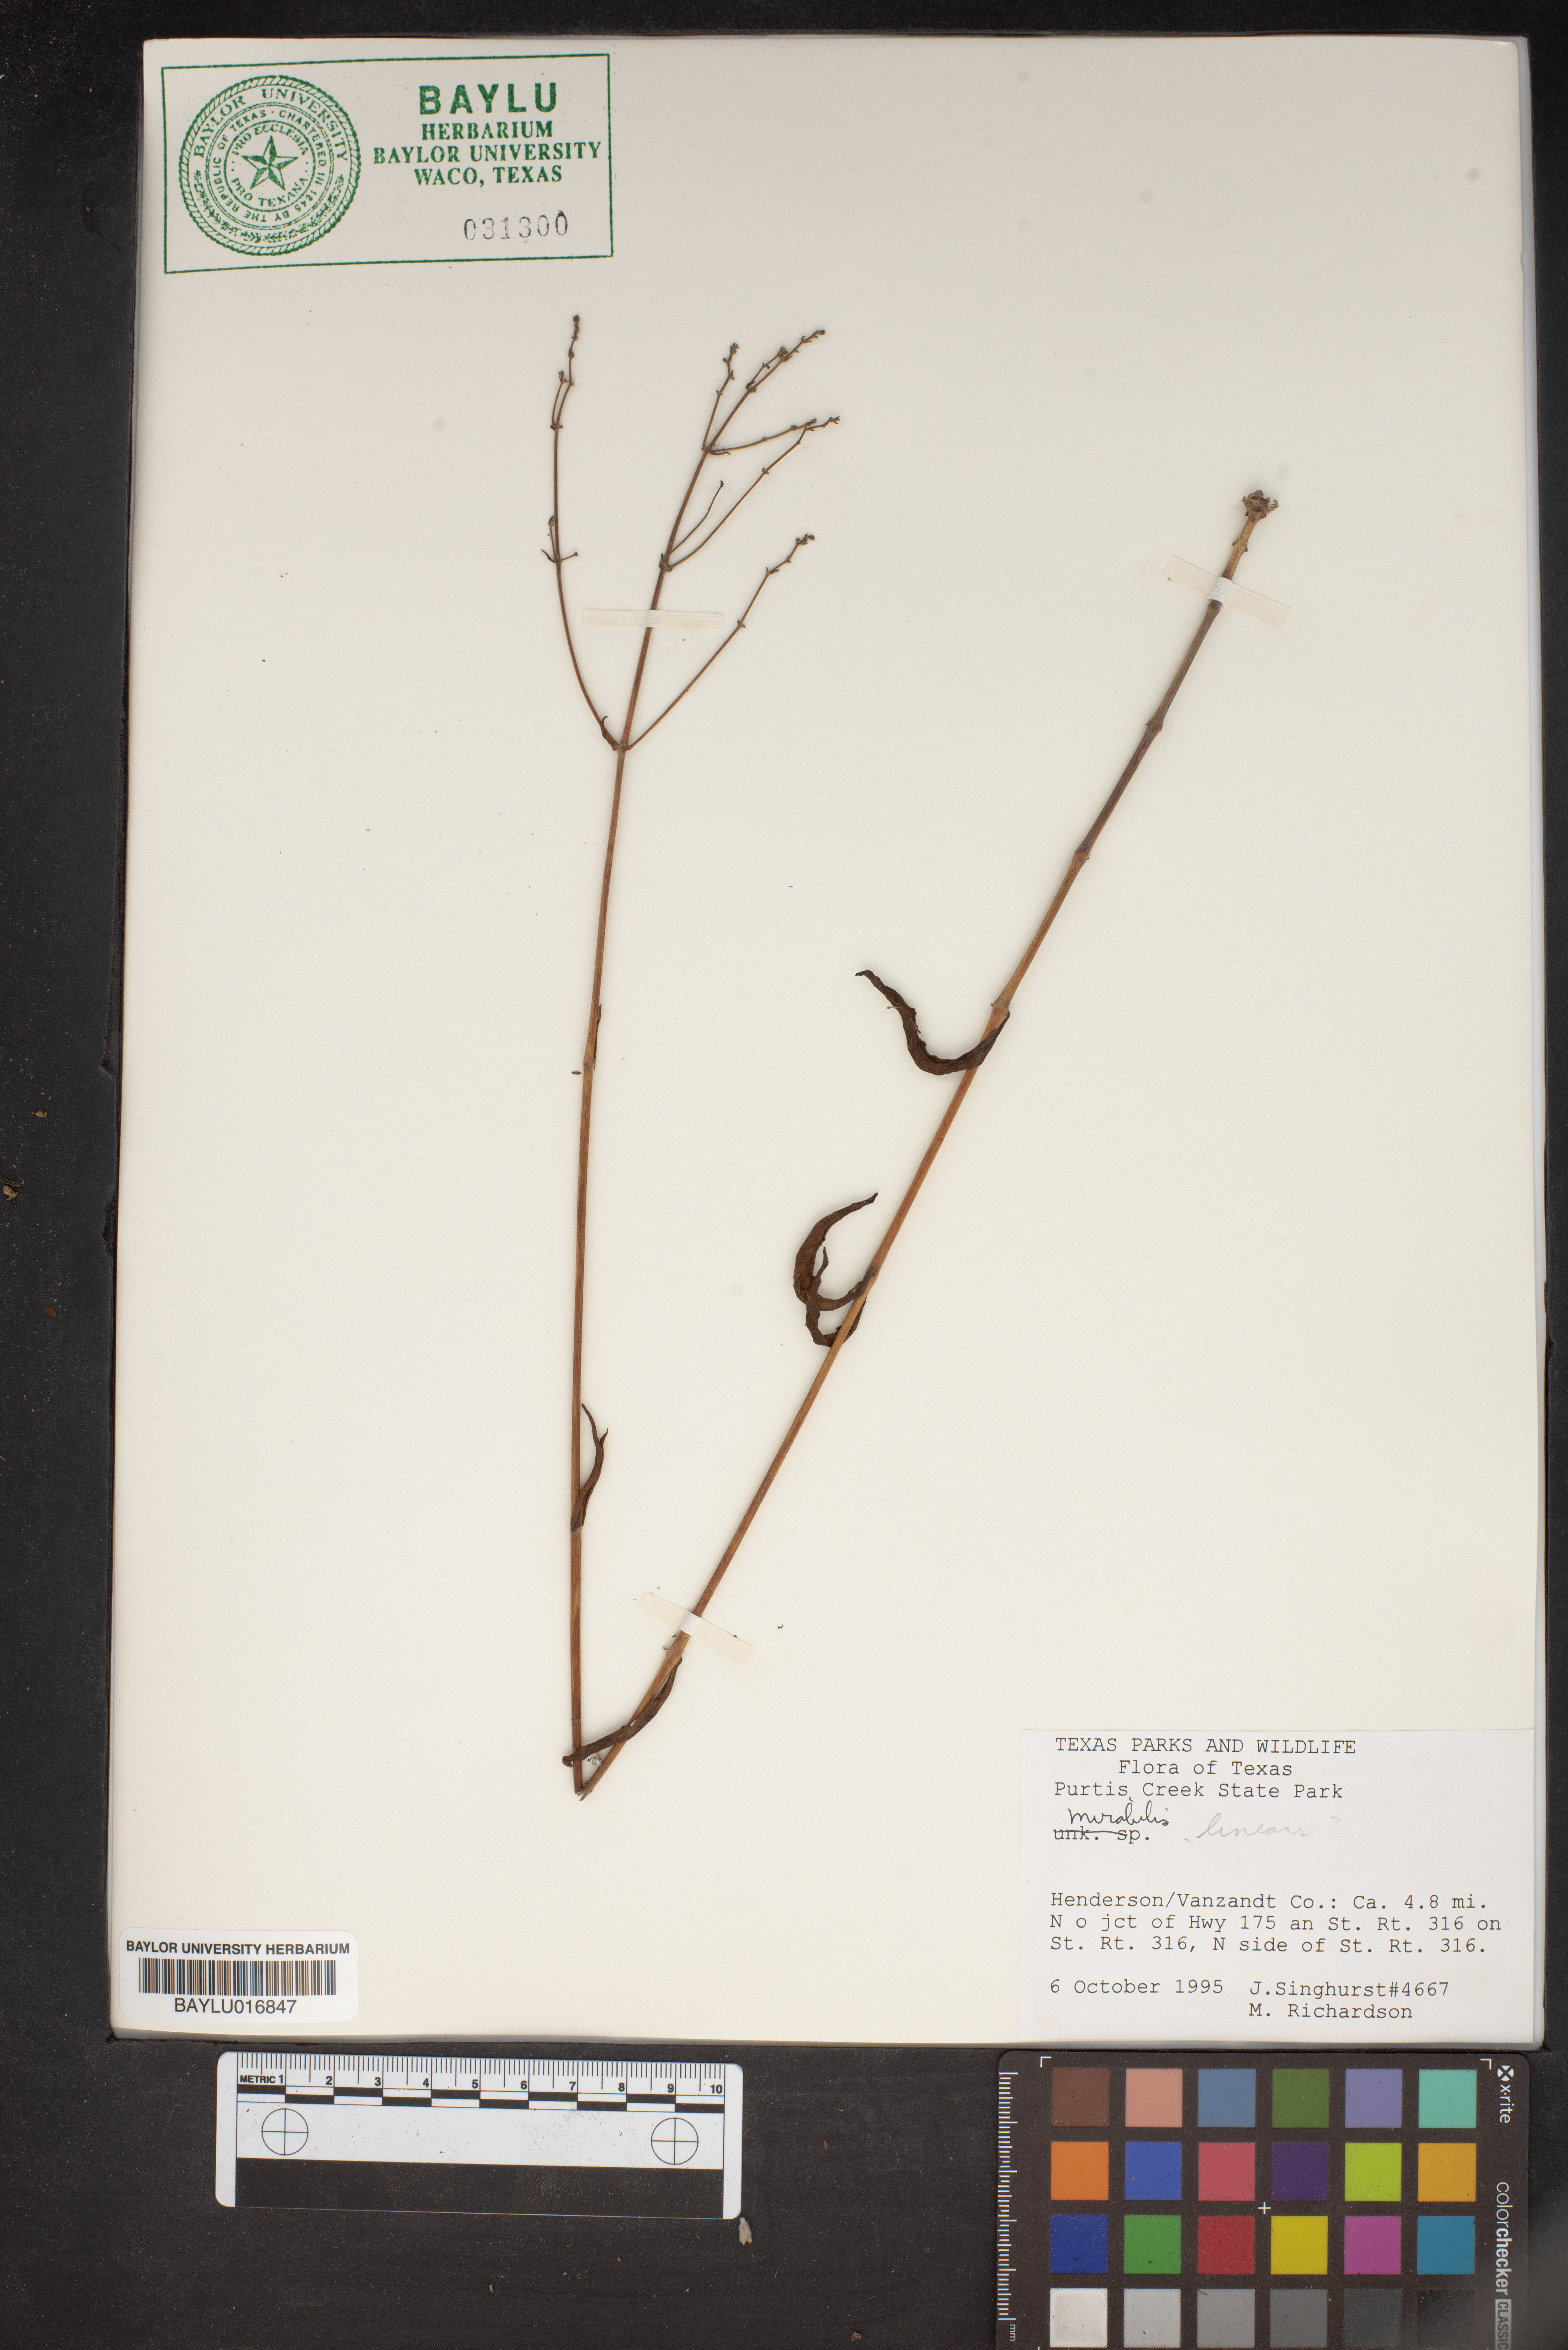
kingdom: Plantae
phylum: Tracheophyta
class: Magnoliopsida
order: Caryophyllales
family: Nyctaginaceae
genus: Mirabilis
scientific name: Mirabilis linearis
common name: Linear-leaved four-o'clock
